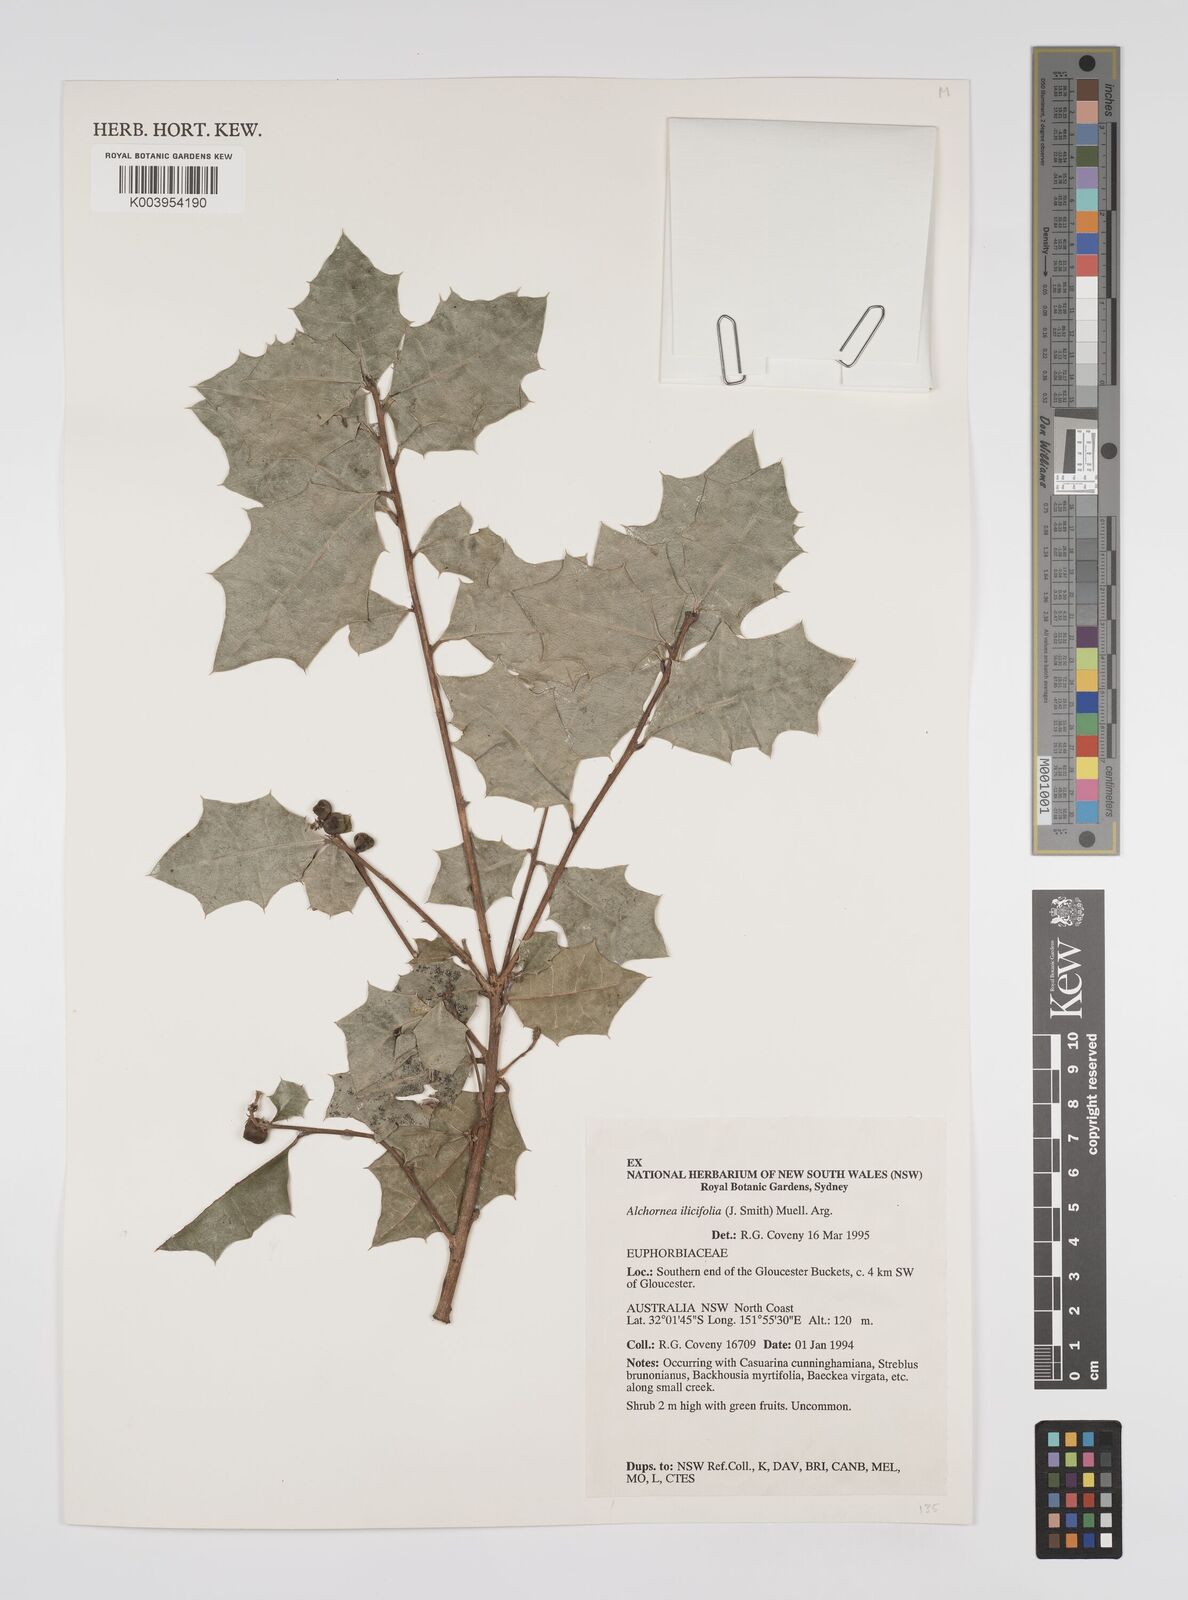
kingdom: Plantae
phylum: Tracheophyta
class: Magnoliopsida
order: Malpighiales
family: Euphorbiaceae
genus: Alchornea
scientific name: Alchornea ilicifolia
